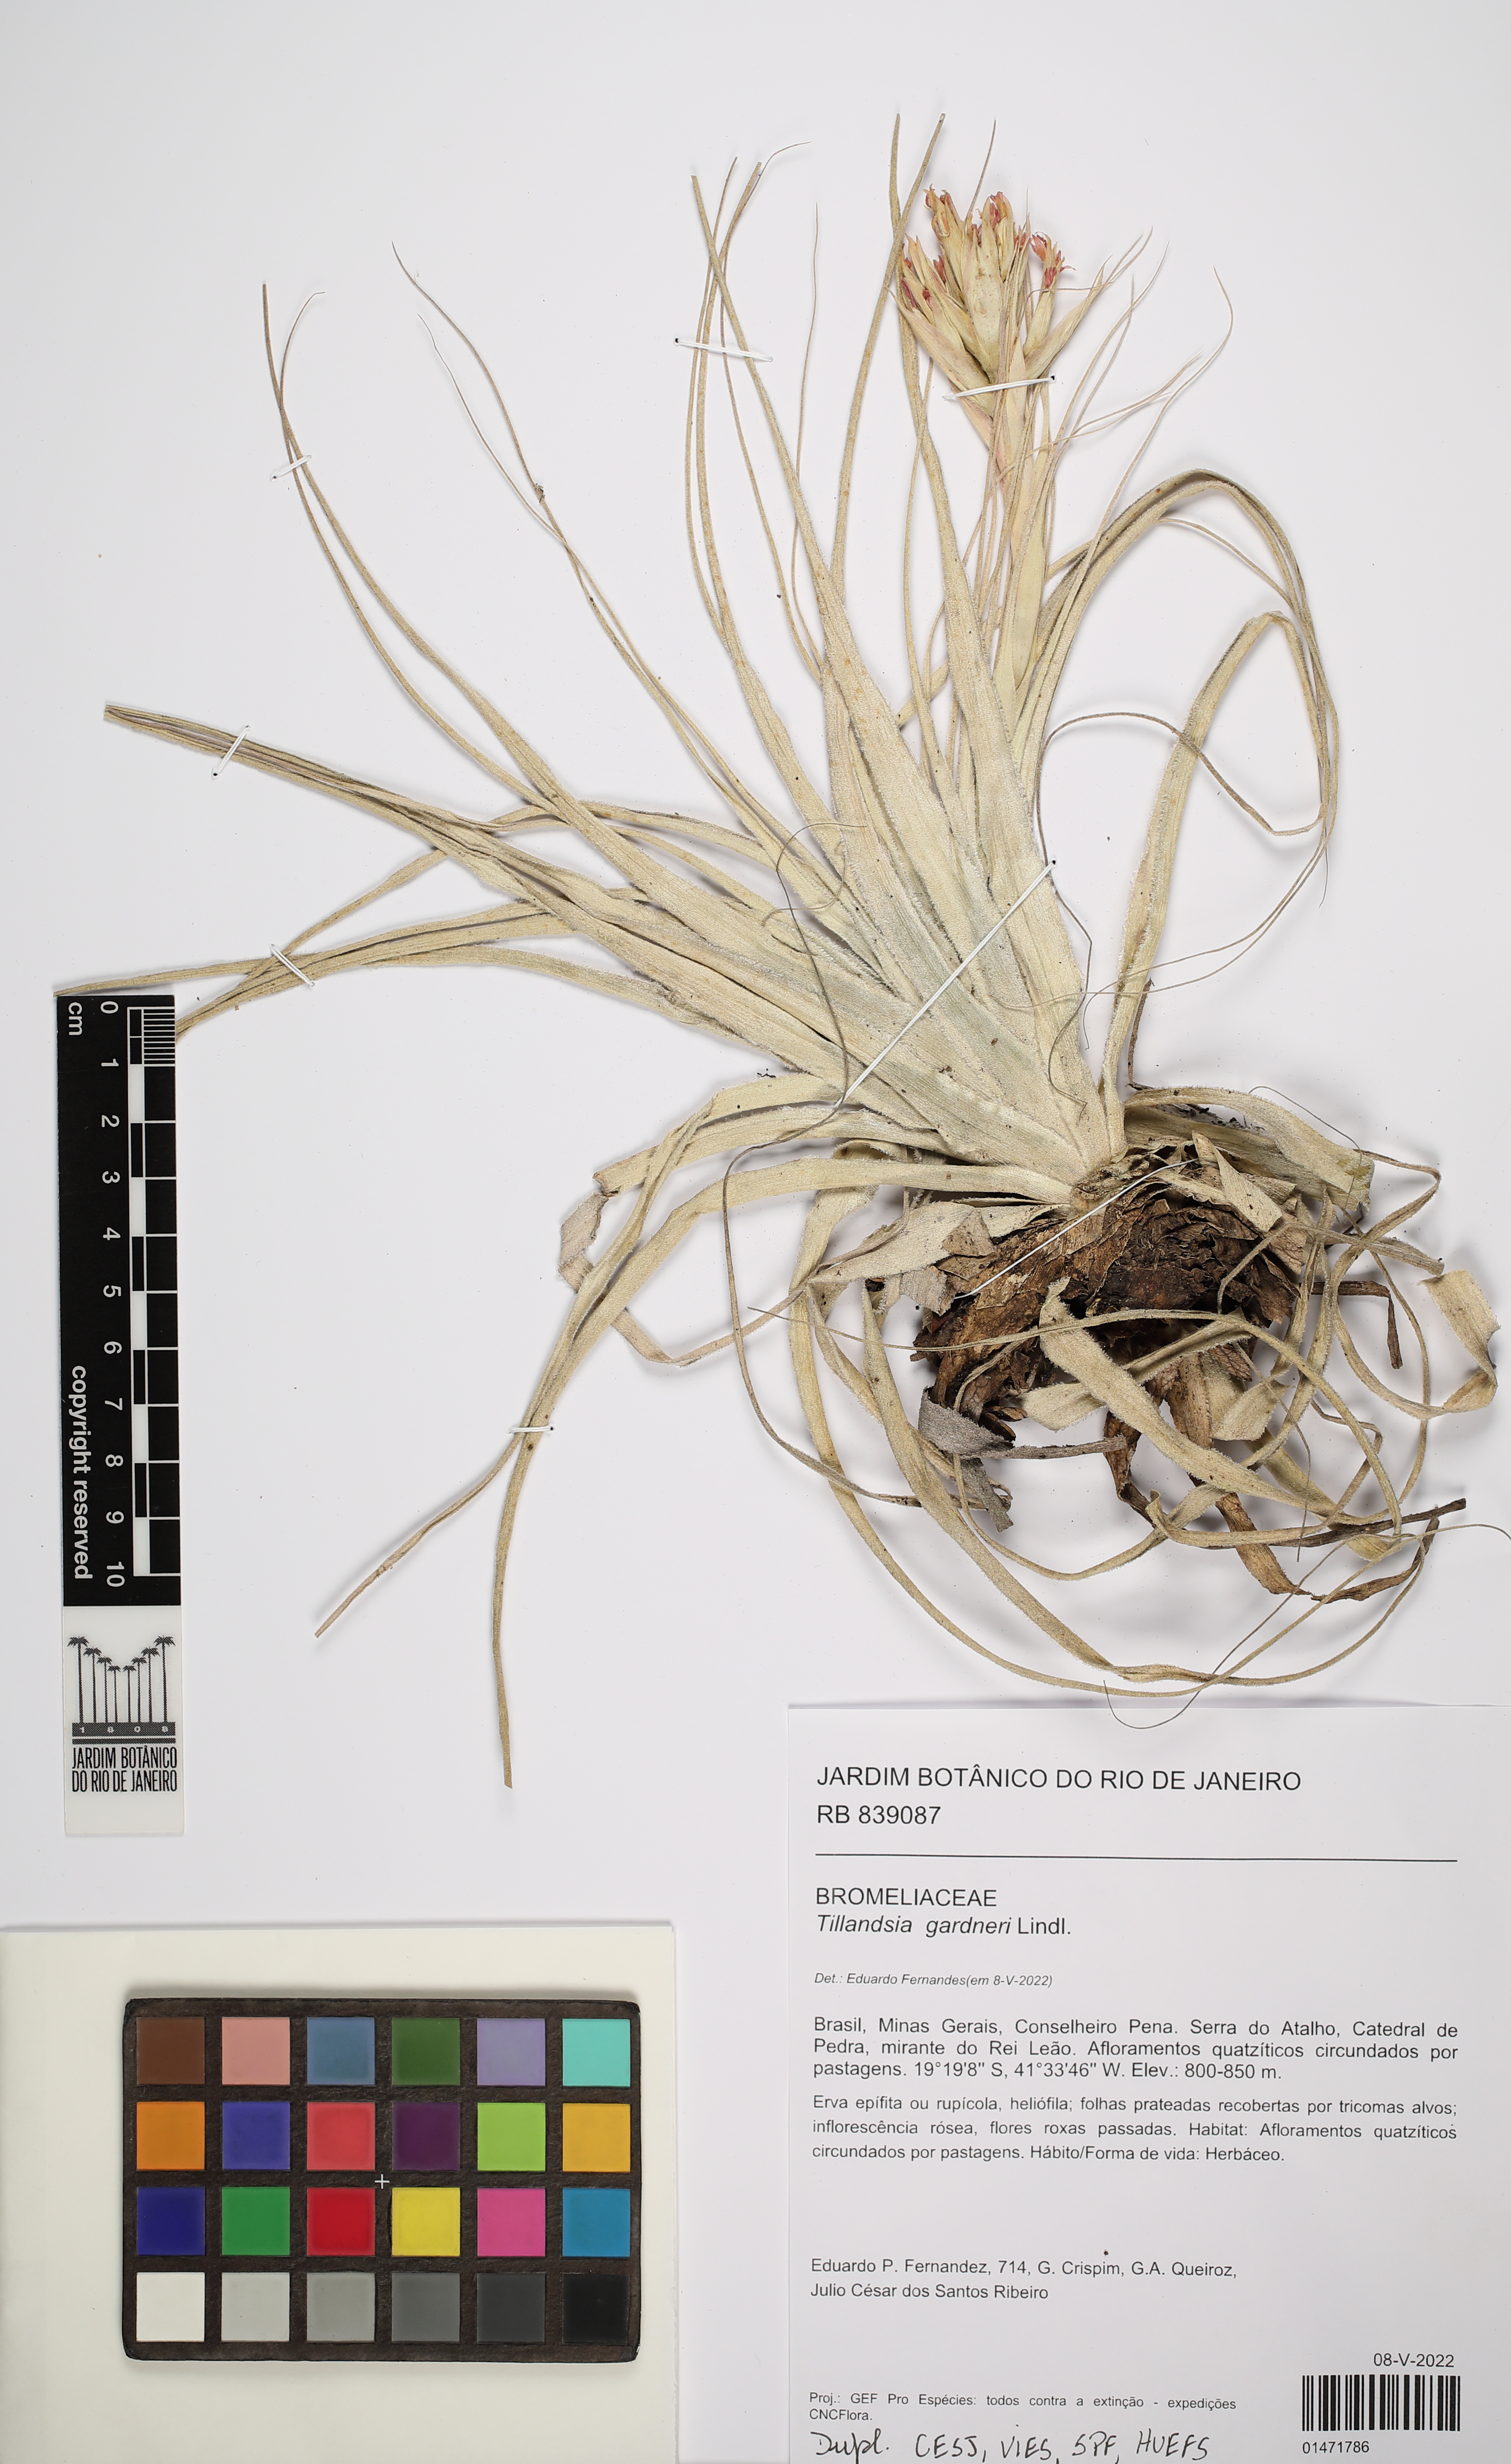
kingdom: Plantae
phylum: Tracheophyta
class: Liliopsida
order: Poales
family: Bromeliaceae
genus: Tillandsia
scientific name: Tillandsia gardneri
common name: Airplant
